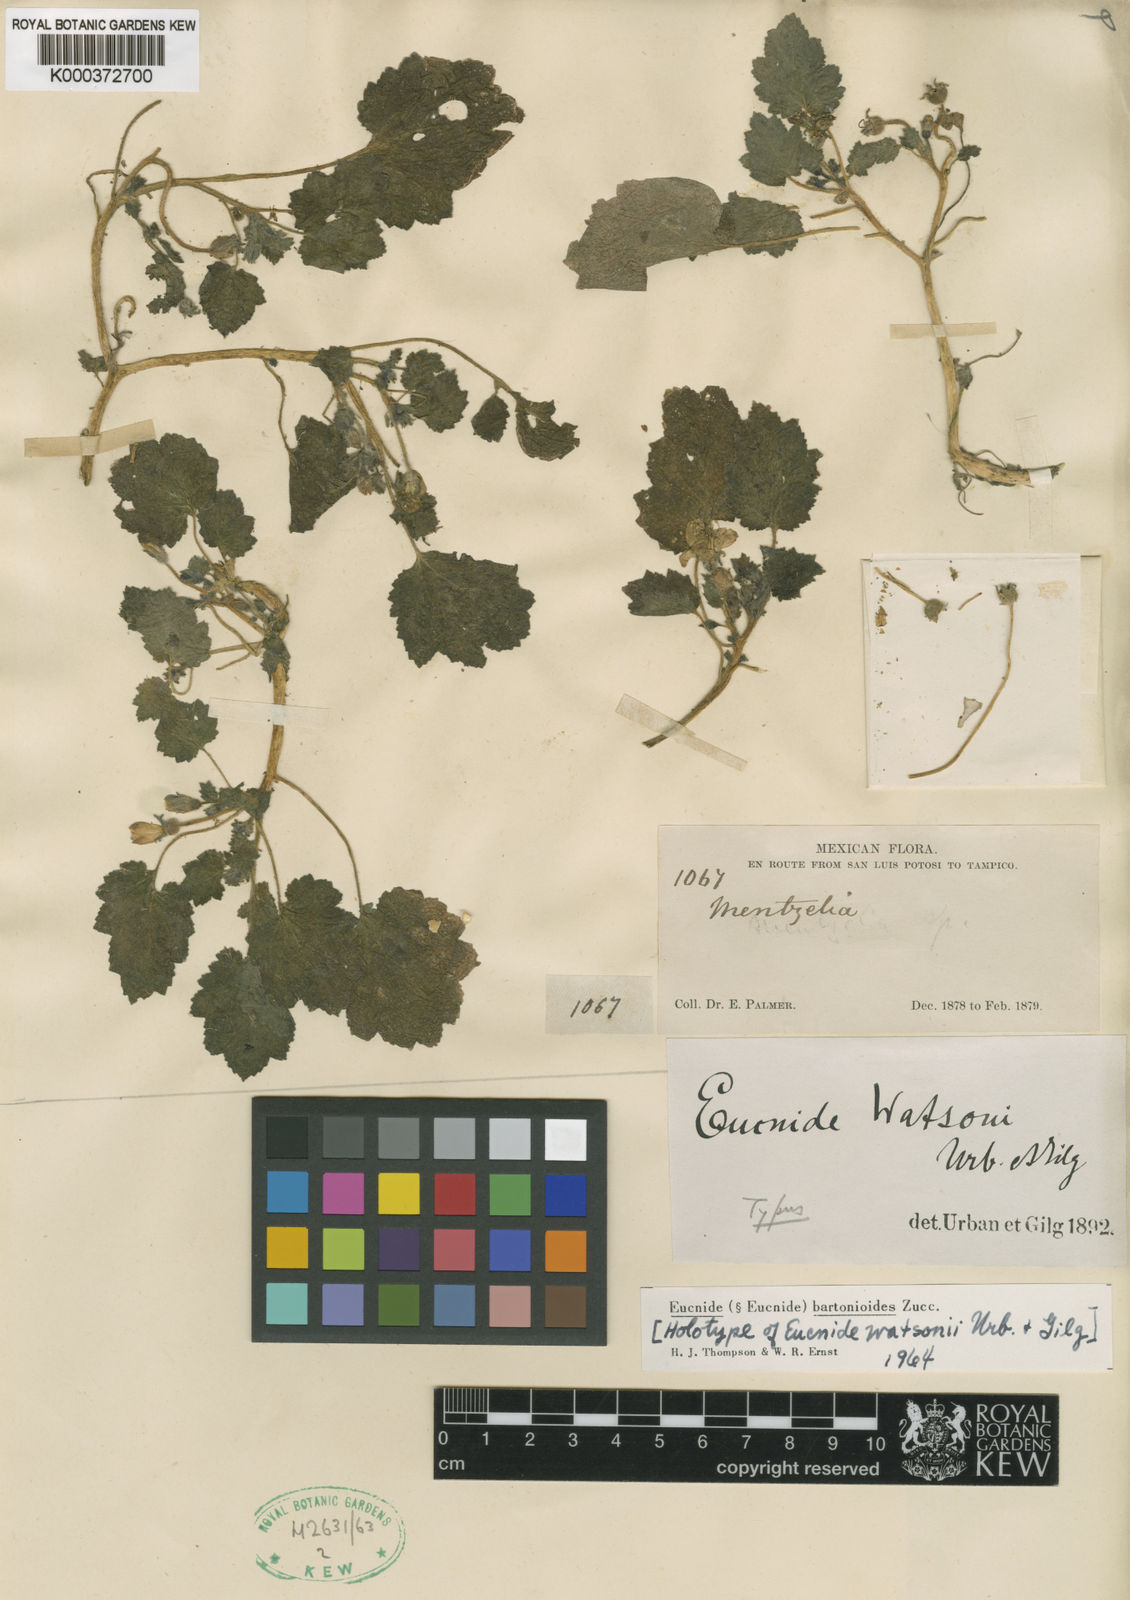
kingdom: Plantae
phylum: Tracheophyta
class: Magnoliopsida
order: Cornales
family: Loasaceae
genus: Eucnide
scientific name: Eucnide lobata
